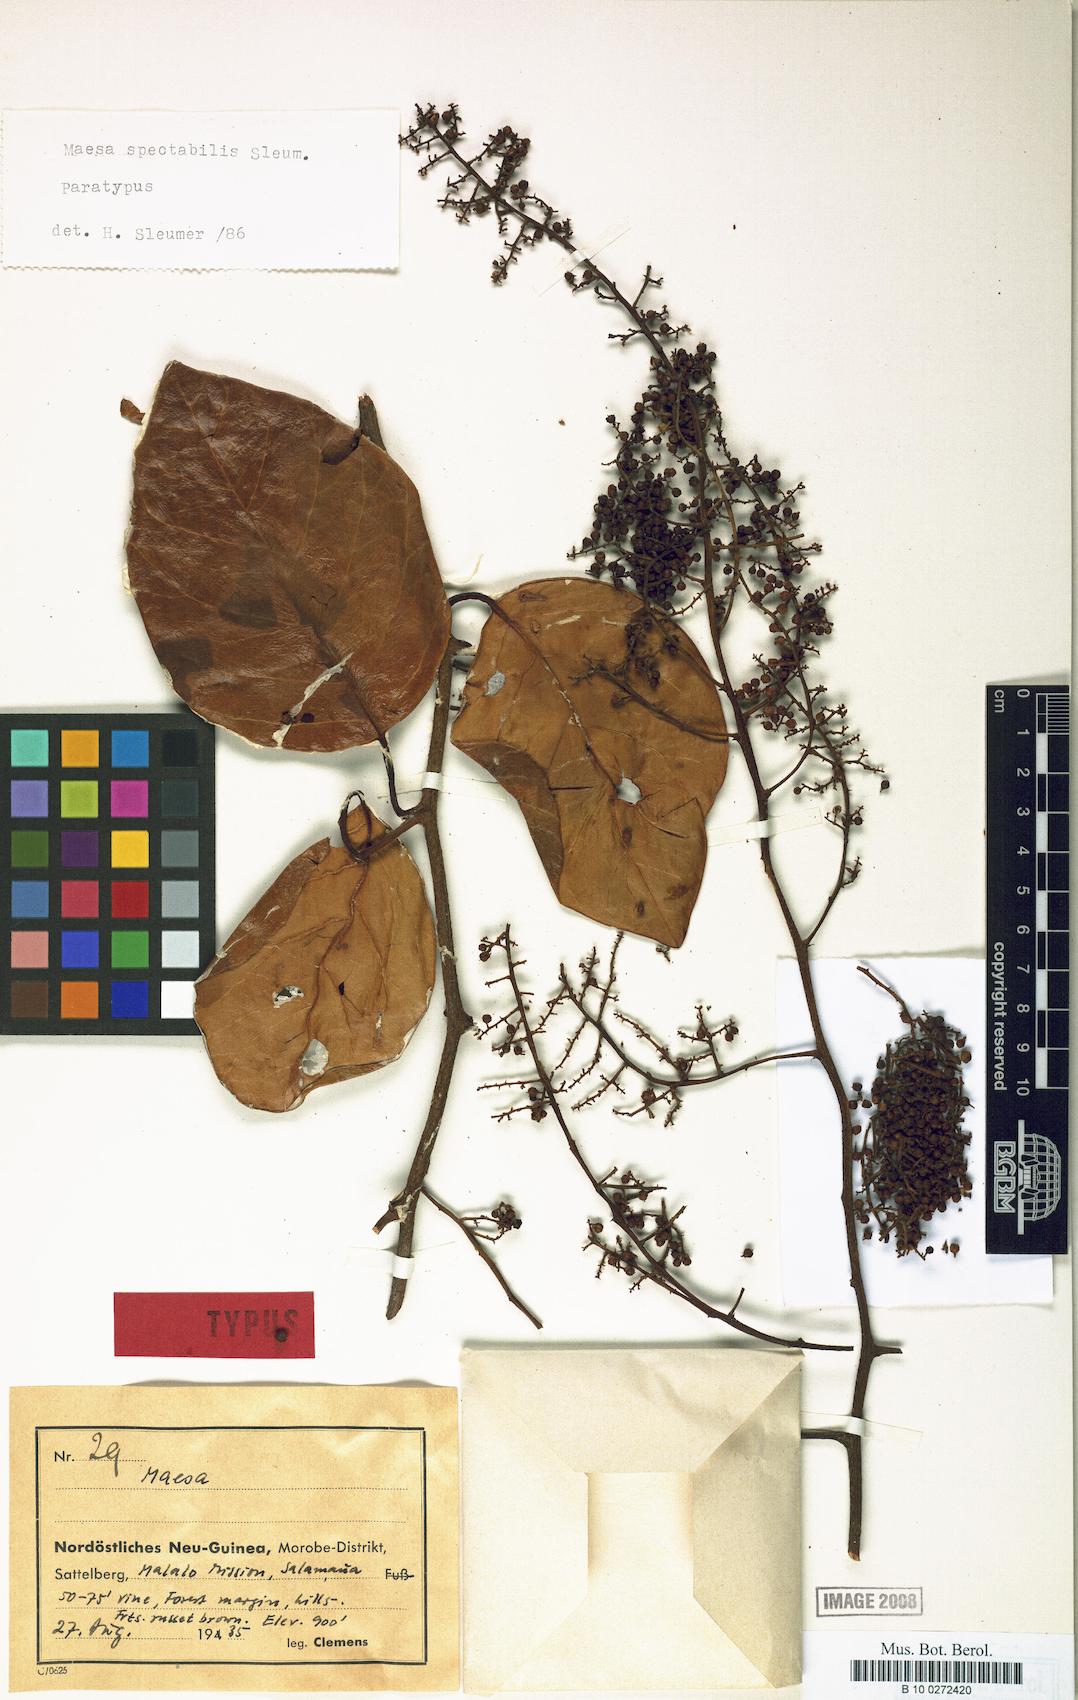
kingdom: Plantae
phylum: Tracheophyta
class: Magnoliopsida
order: Ericales
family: Primulaceae
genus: Maesa
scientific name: Maesa spectabilis
